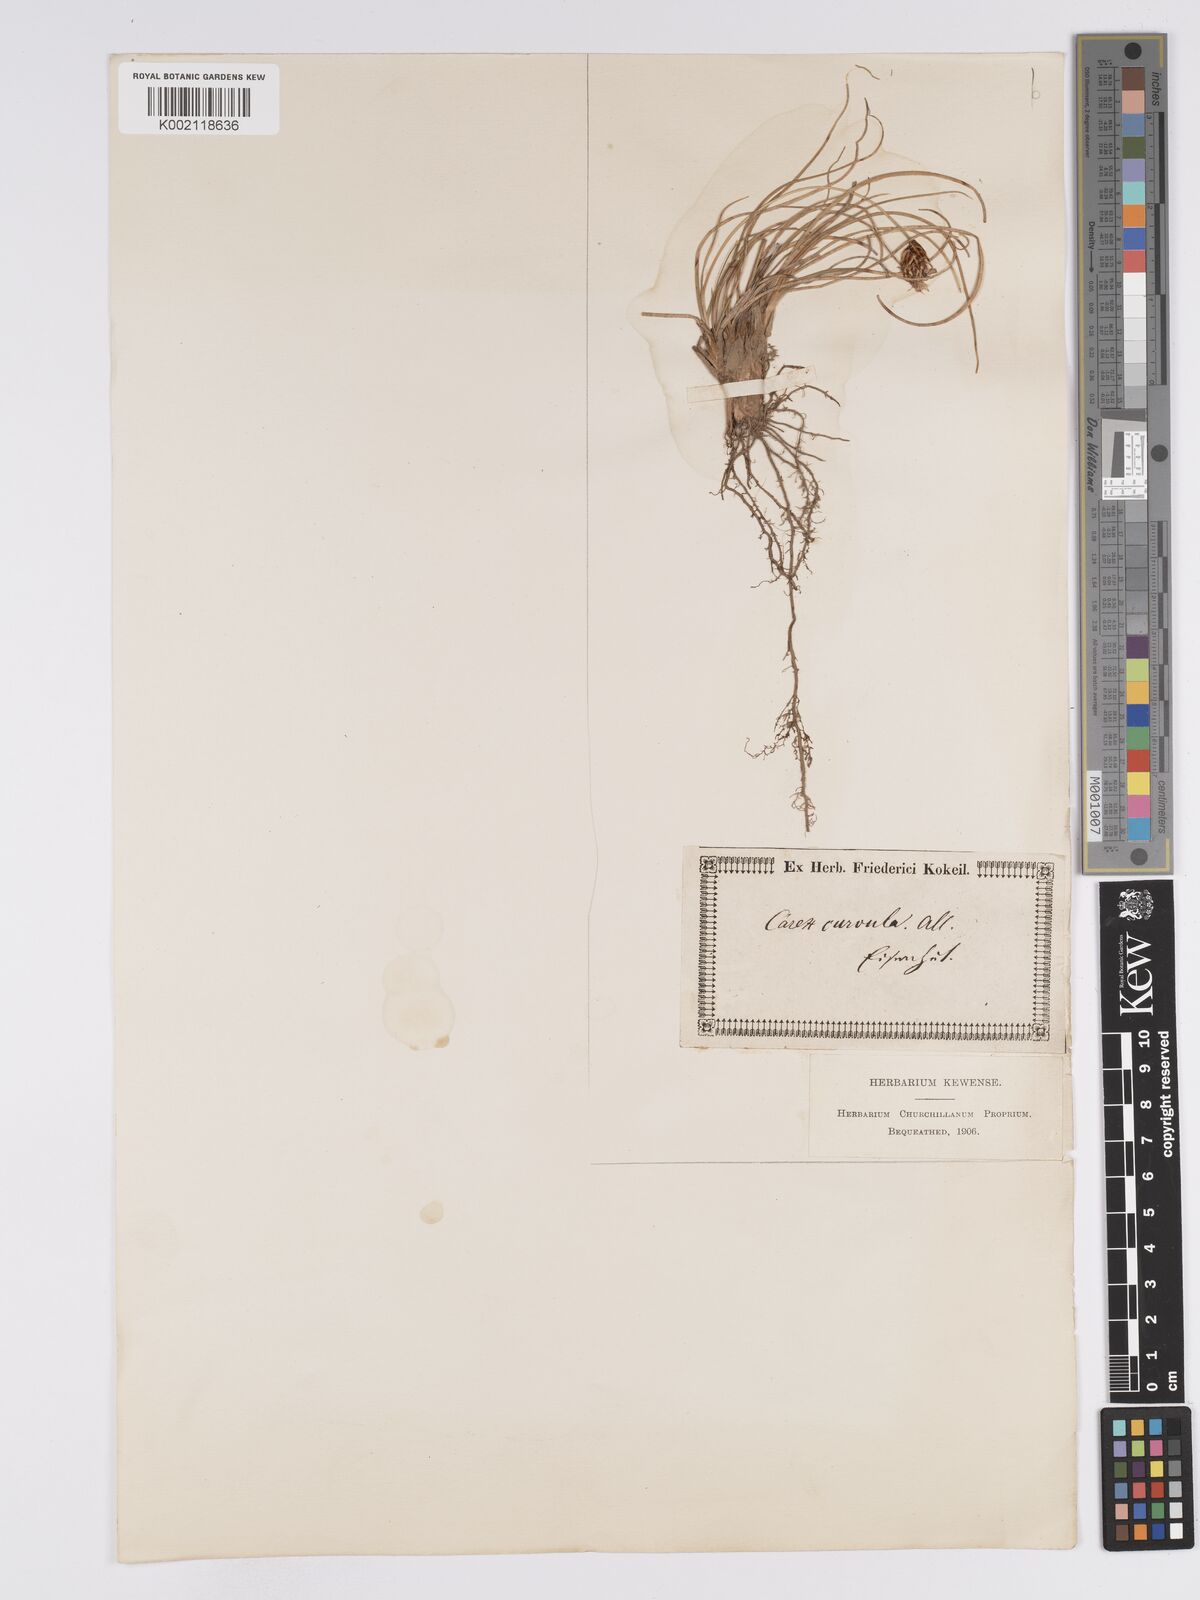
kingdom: Plantae
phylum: Tracheophyta
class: Liliopsida
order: Poales
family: Cyperaceae
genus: Carex
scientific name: Carex curvula
